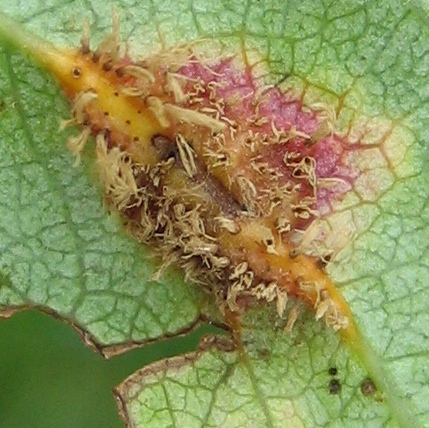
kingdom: Fungi
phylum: Basidiomycota
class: Pucciniomycetes
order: Pucciniales
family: Gymnosporangiaceae
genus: Gymnosporangium
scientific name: Gymnosporangium
